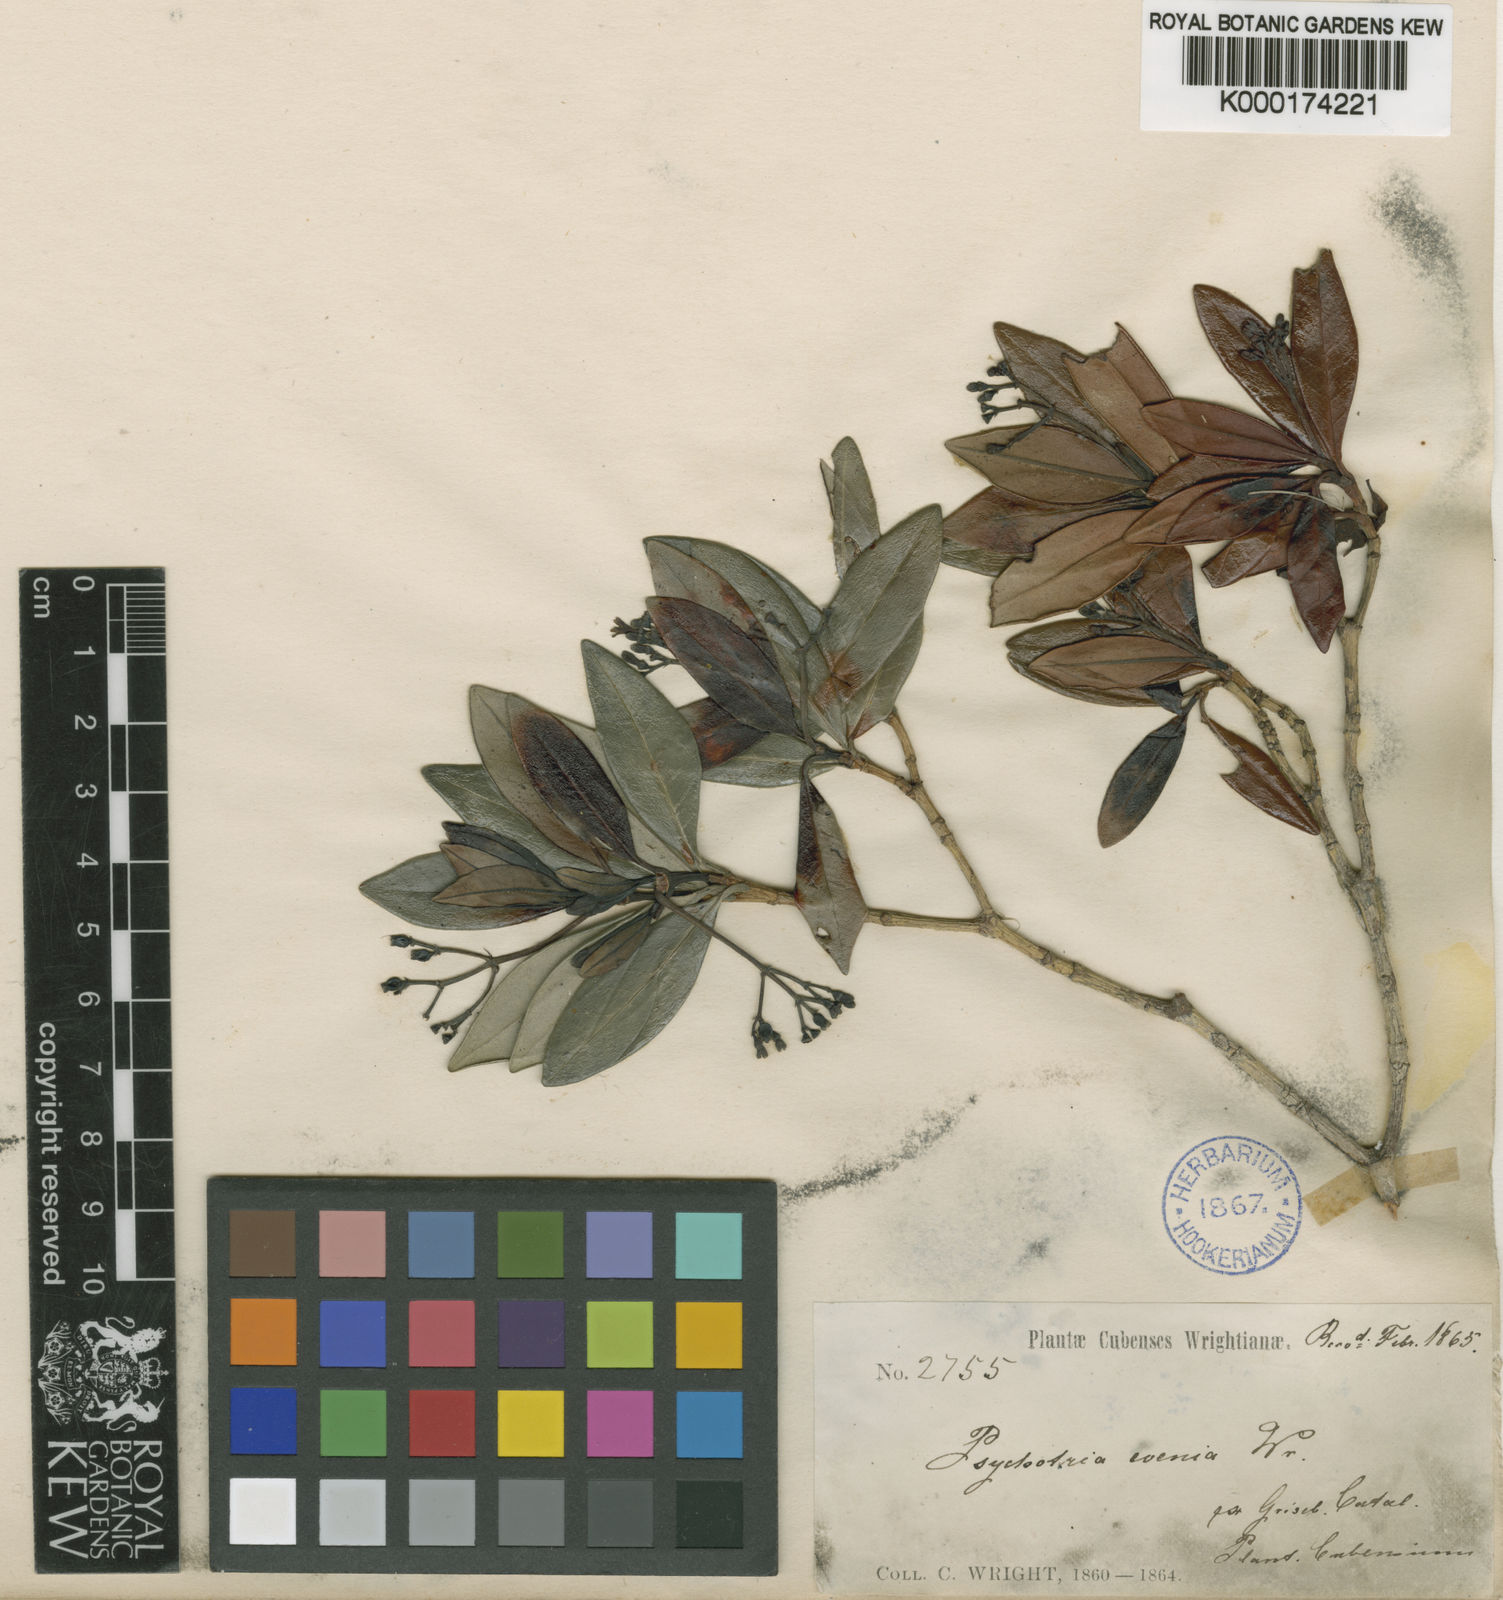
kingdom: Plantae
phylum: Tracheophyta
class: Magnoliopsida
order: Gentianales
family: Rubiaceae
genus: Psychotria
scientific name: Psychotria evenia
